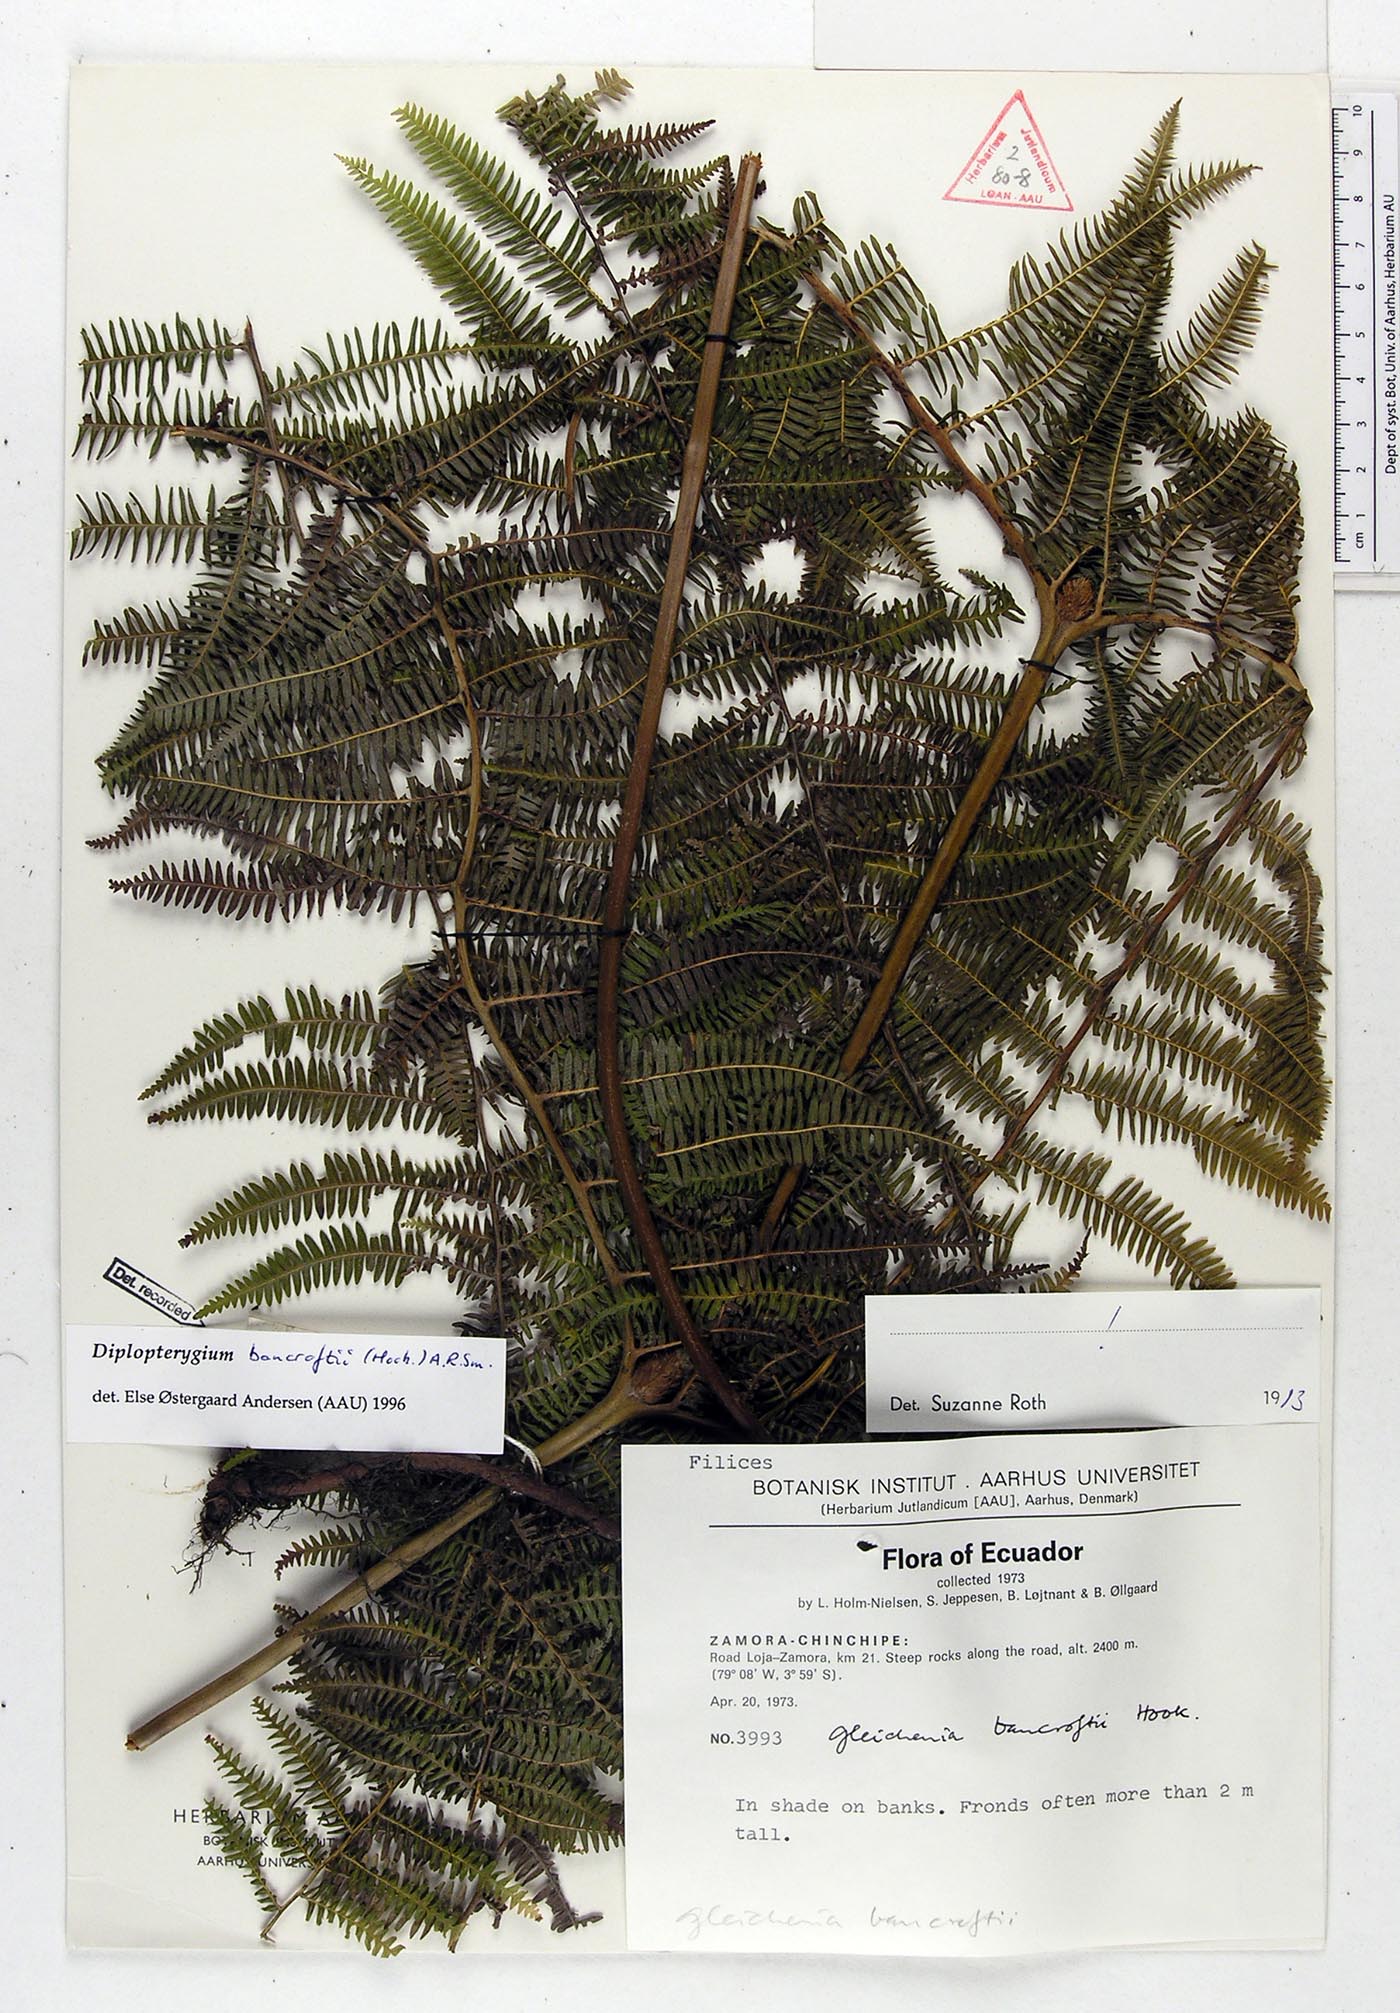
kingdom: Plantae
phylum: Tracheophyta
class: Polypodiopsida
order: Gleicheniales
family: Gleicheniaceae
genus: Diplopterygium
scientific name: Diplopterygium bancroftii
